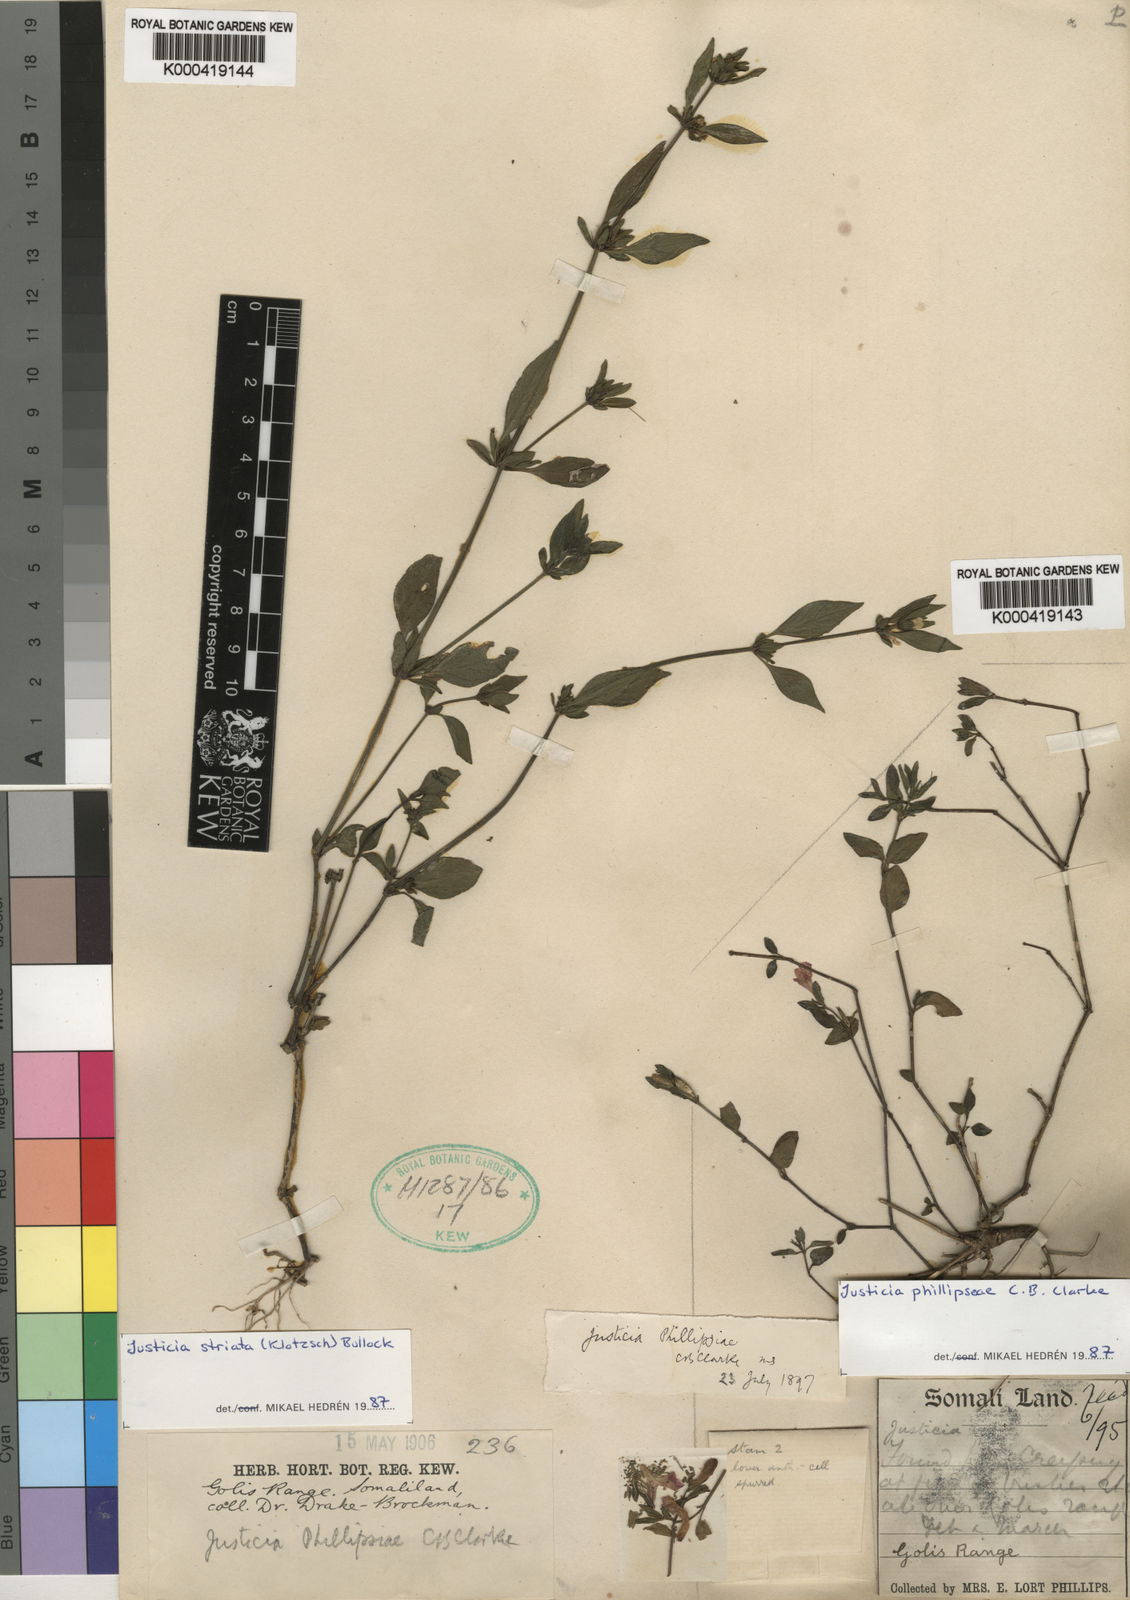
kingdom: Plantae
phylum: Tracheophyta
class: Magnoliopsida
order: Lamiales
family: Acanthaceae
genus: Justicia
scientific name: Justicia
